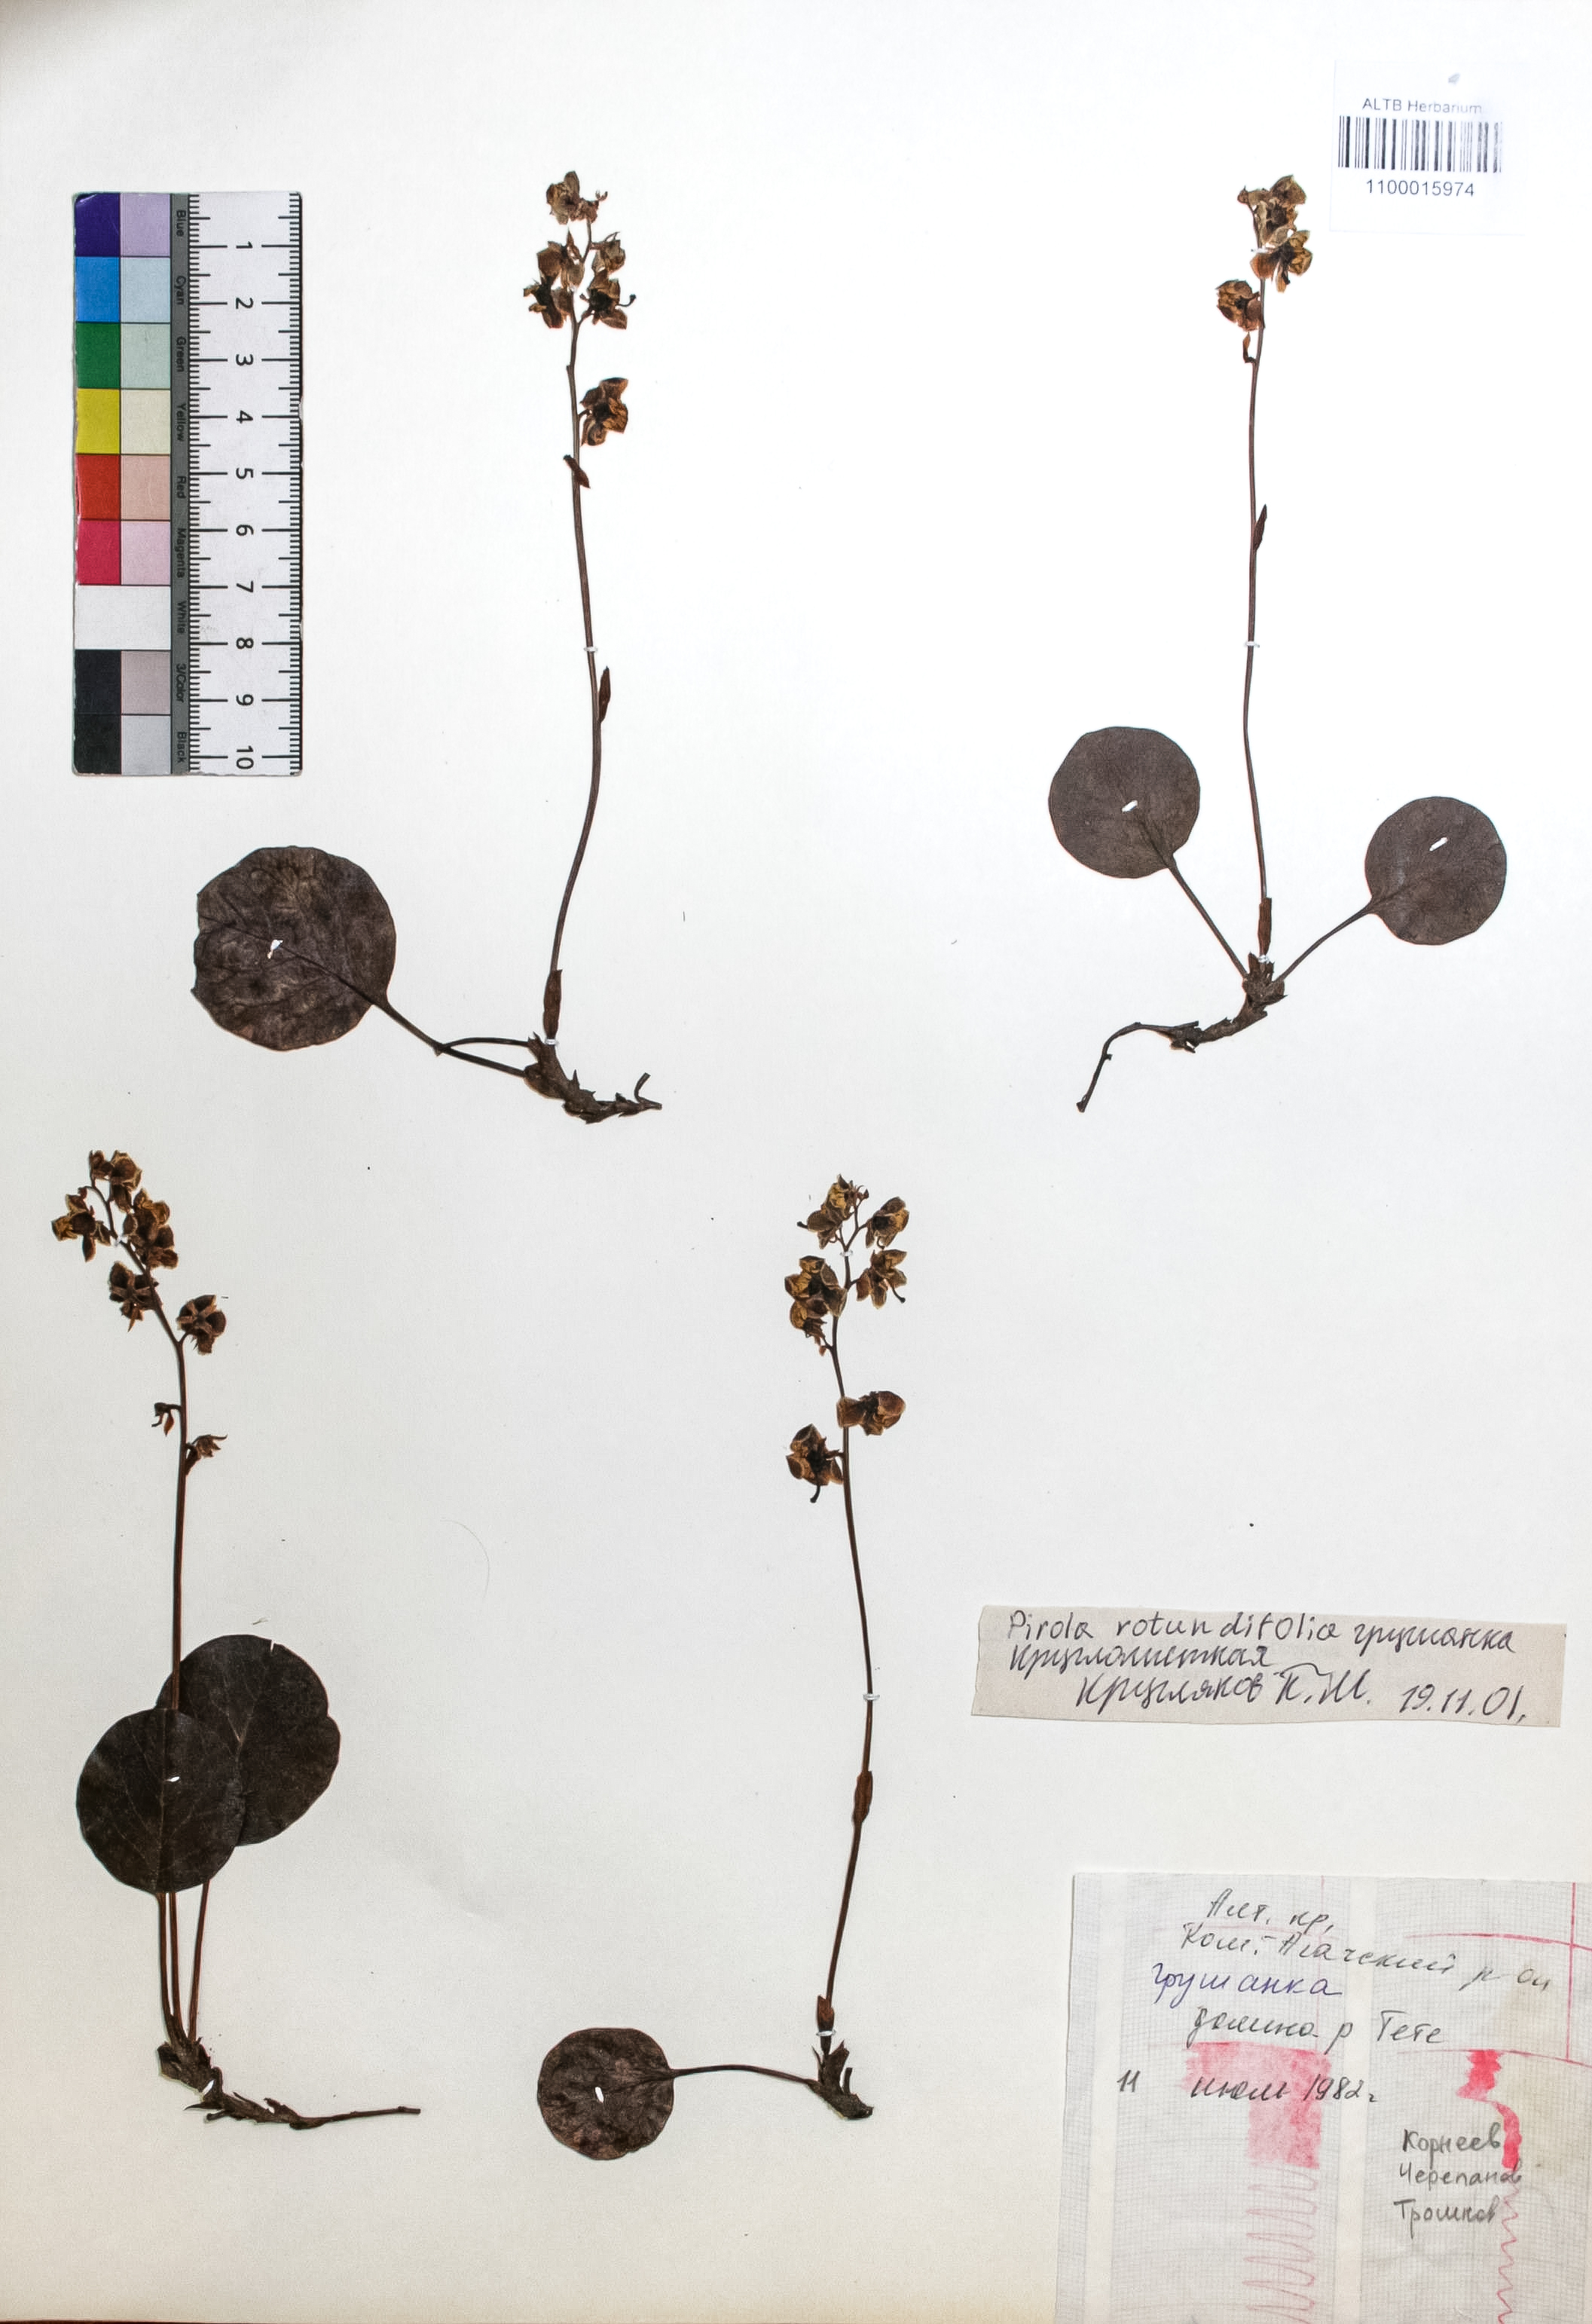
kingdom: Plantae
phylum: Tracheophyta
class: Magnoliopsida
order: Ericales
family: Ericaceae
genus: Pyrola
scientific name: Pyrola rotundifolia
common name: Round-leaved wintergreen
